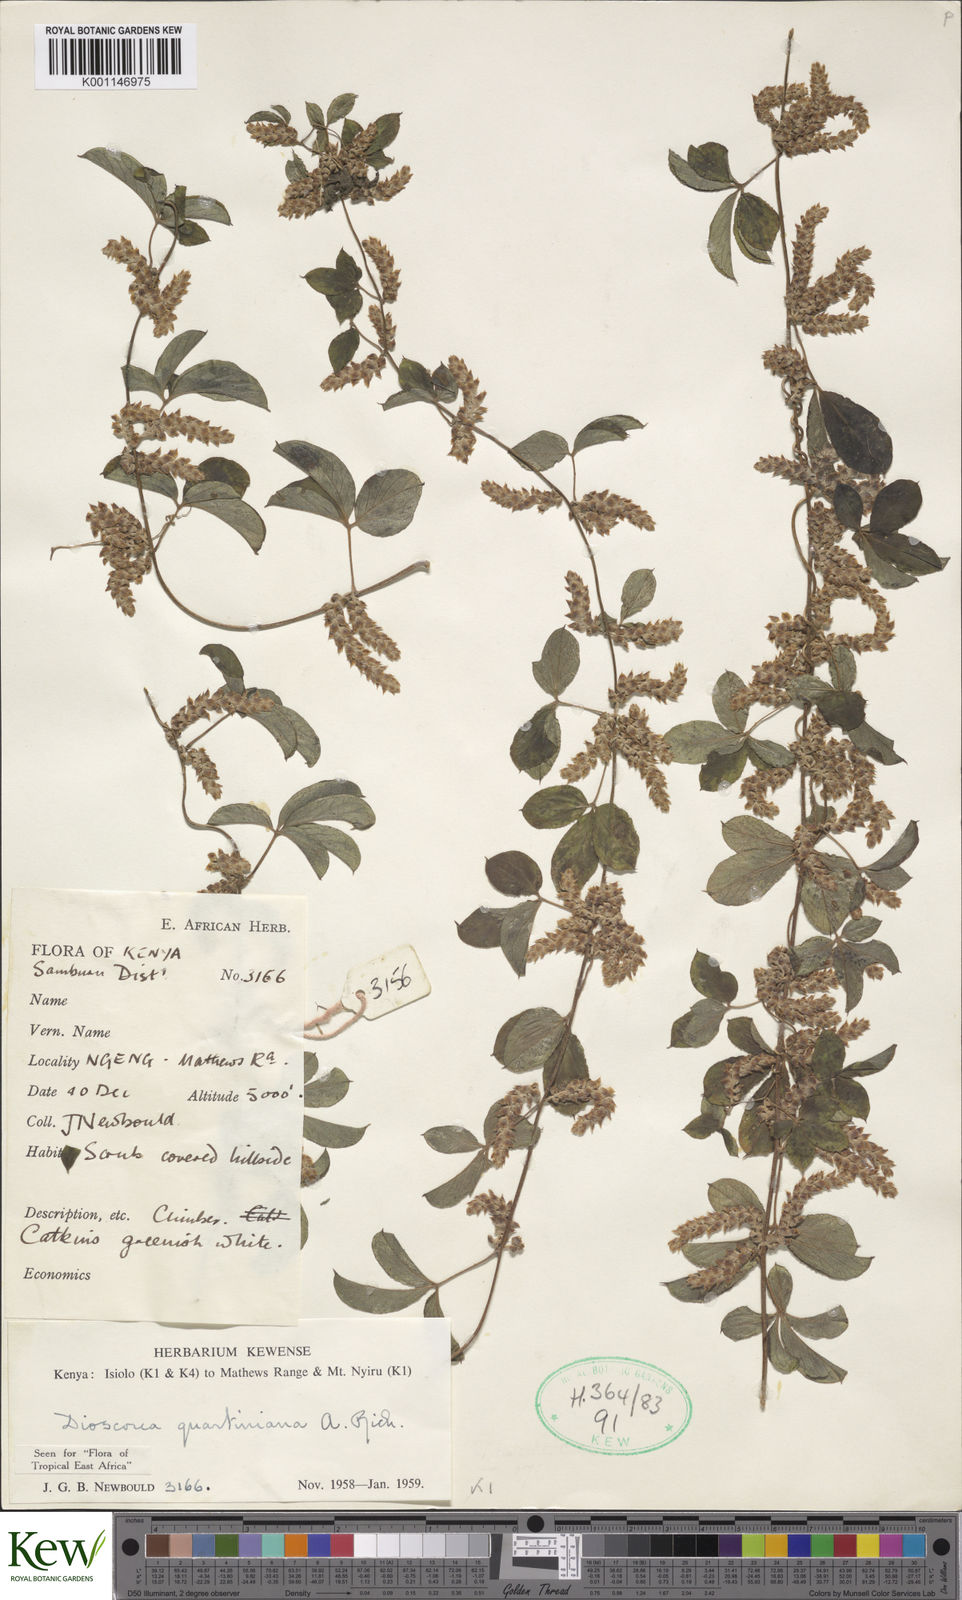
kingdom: Plantae
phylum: Tracheophyta
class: Liliopsida
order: Dioscoreales
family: Dioscoreaceae
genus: Dioscorea
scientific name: Dioscorea quartiniana
